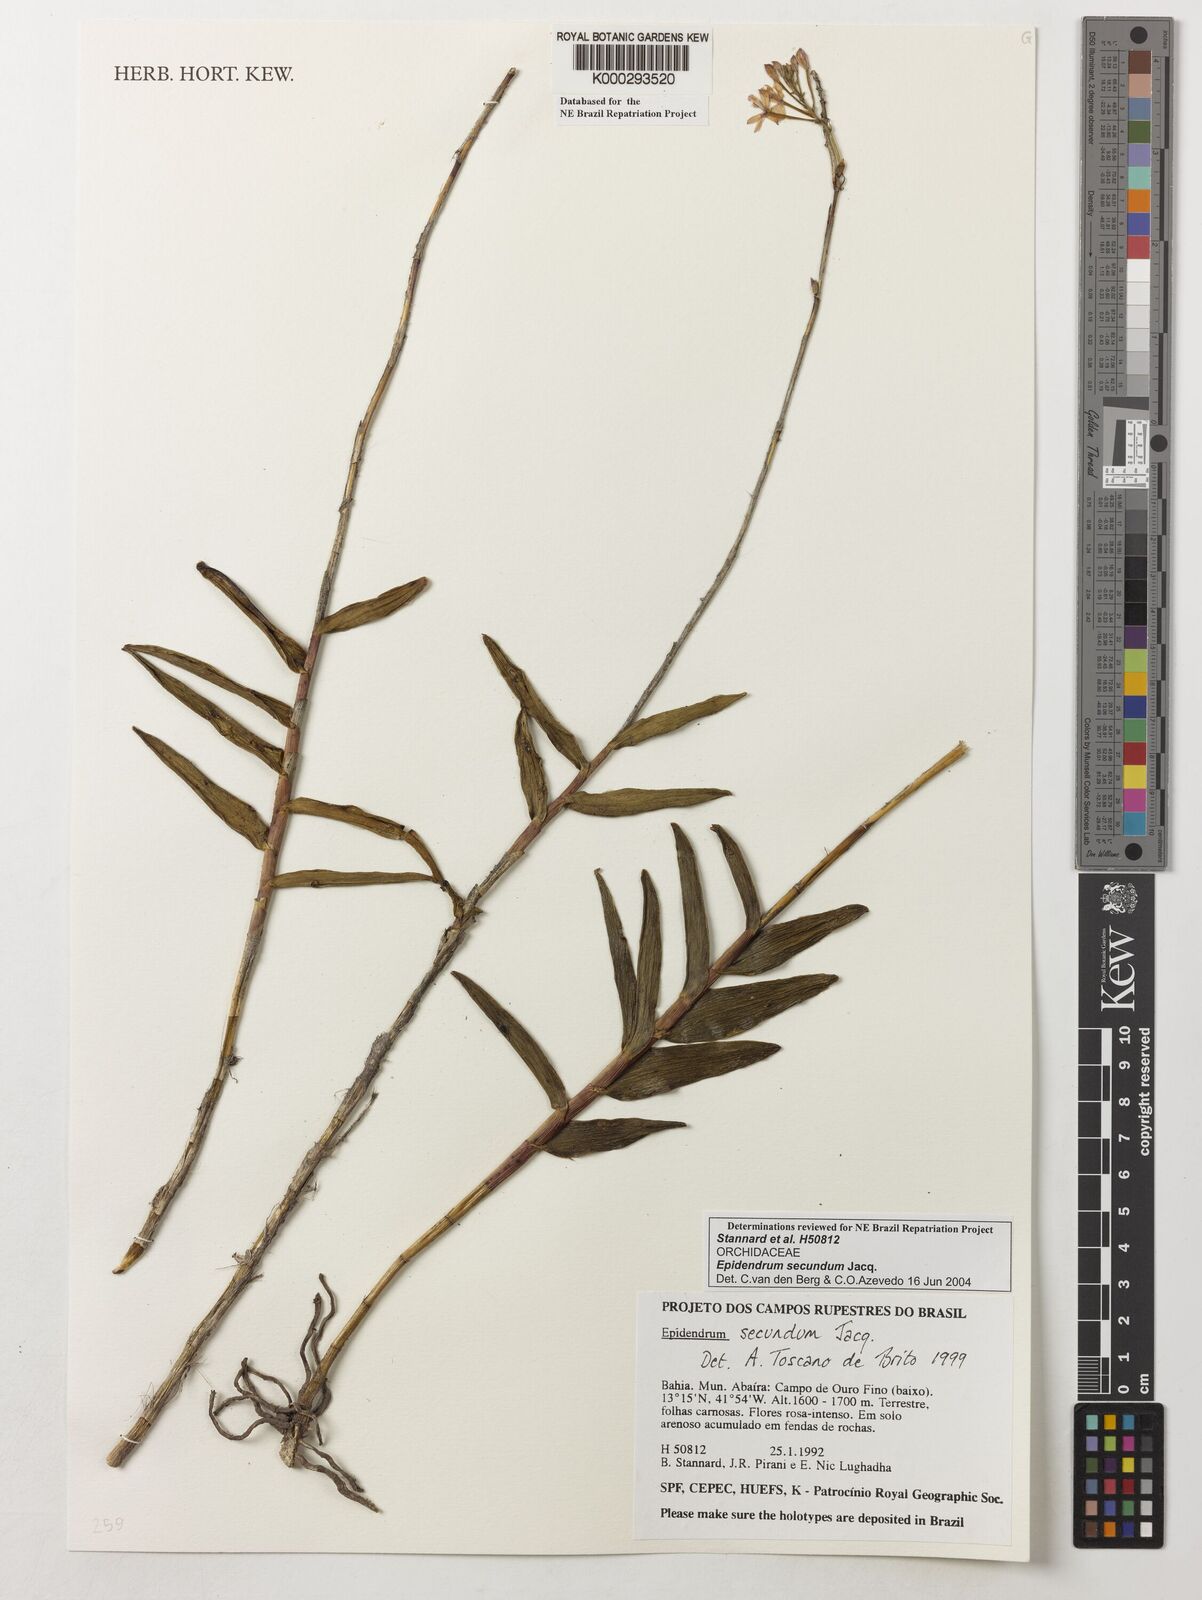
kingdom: Plantae
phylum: Tracheophyta
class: Liliopsida
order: Asparagales
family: Orchidaceae
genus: Epidendrum
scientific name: Epidendrum secundum
